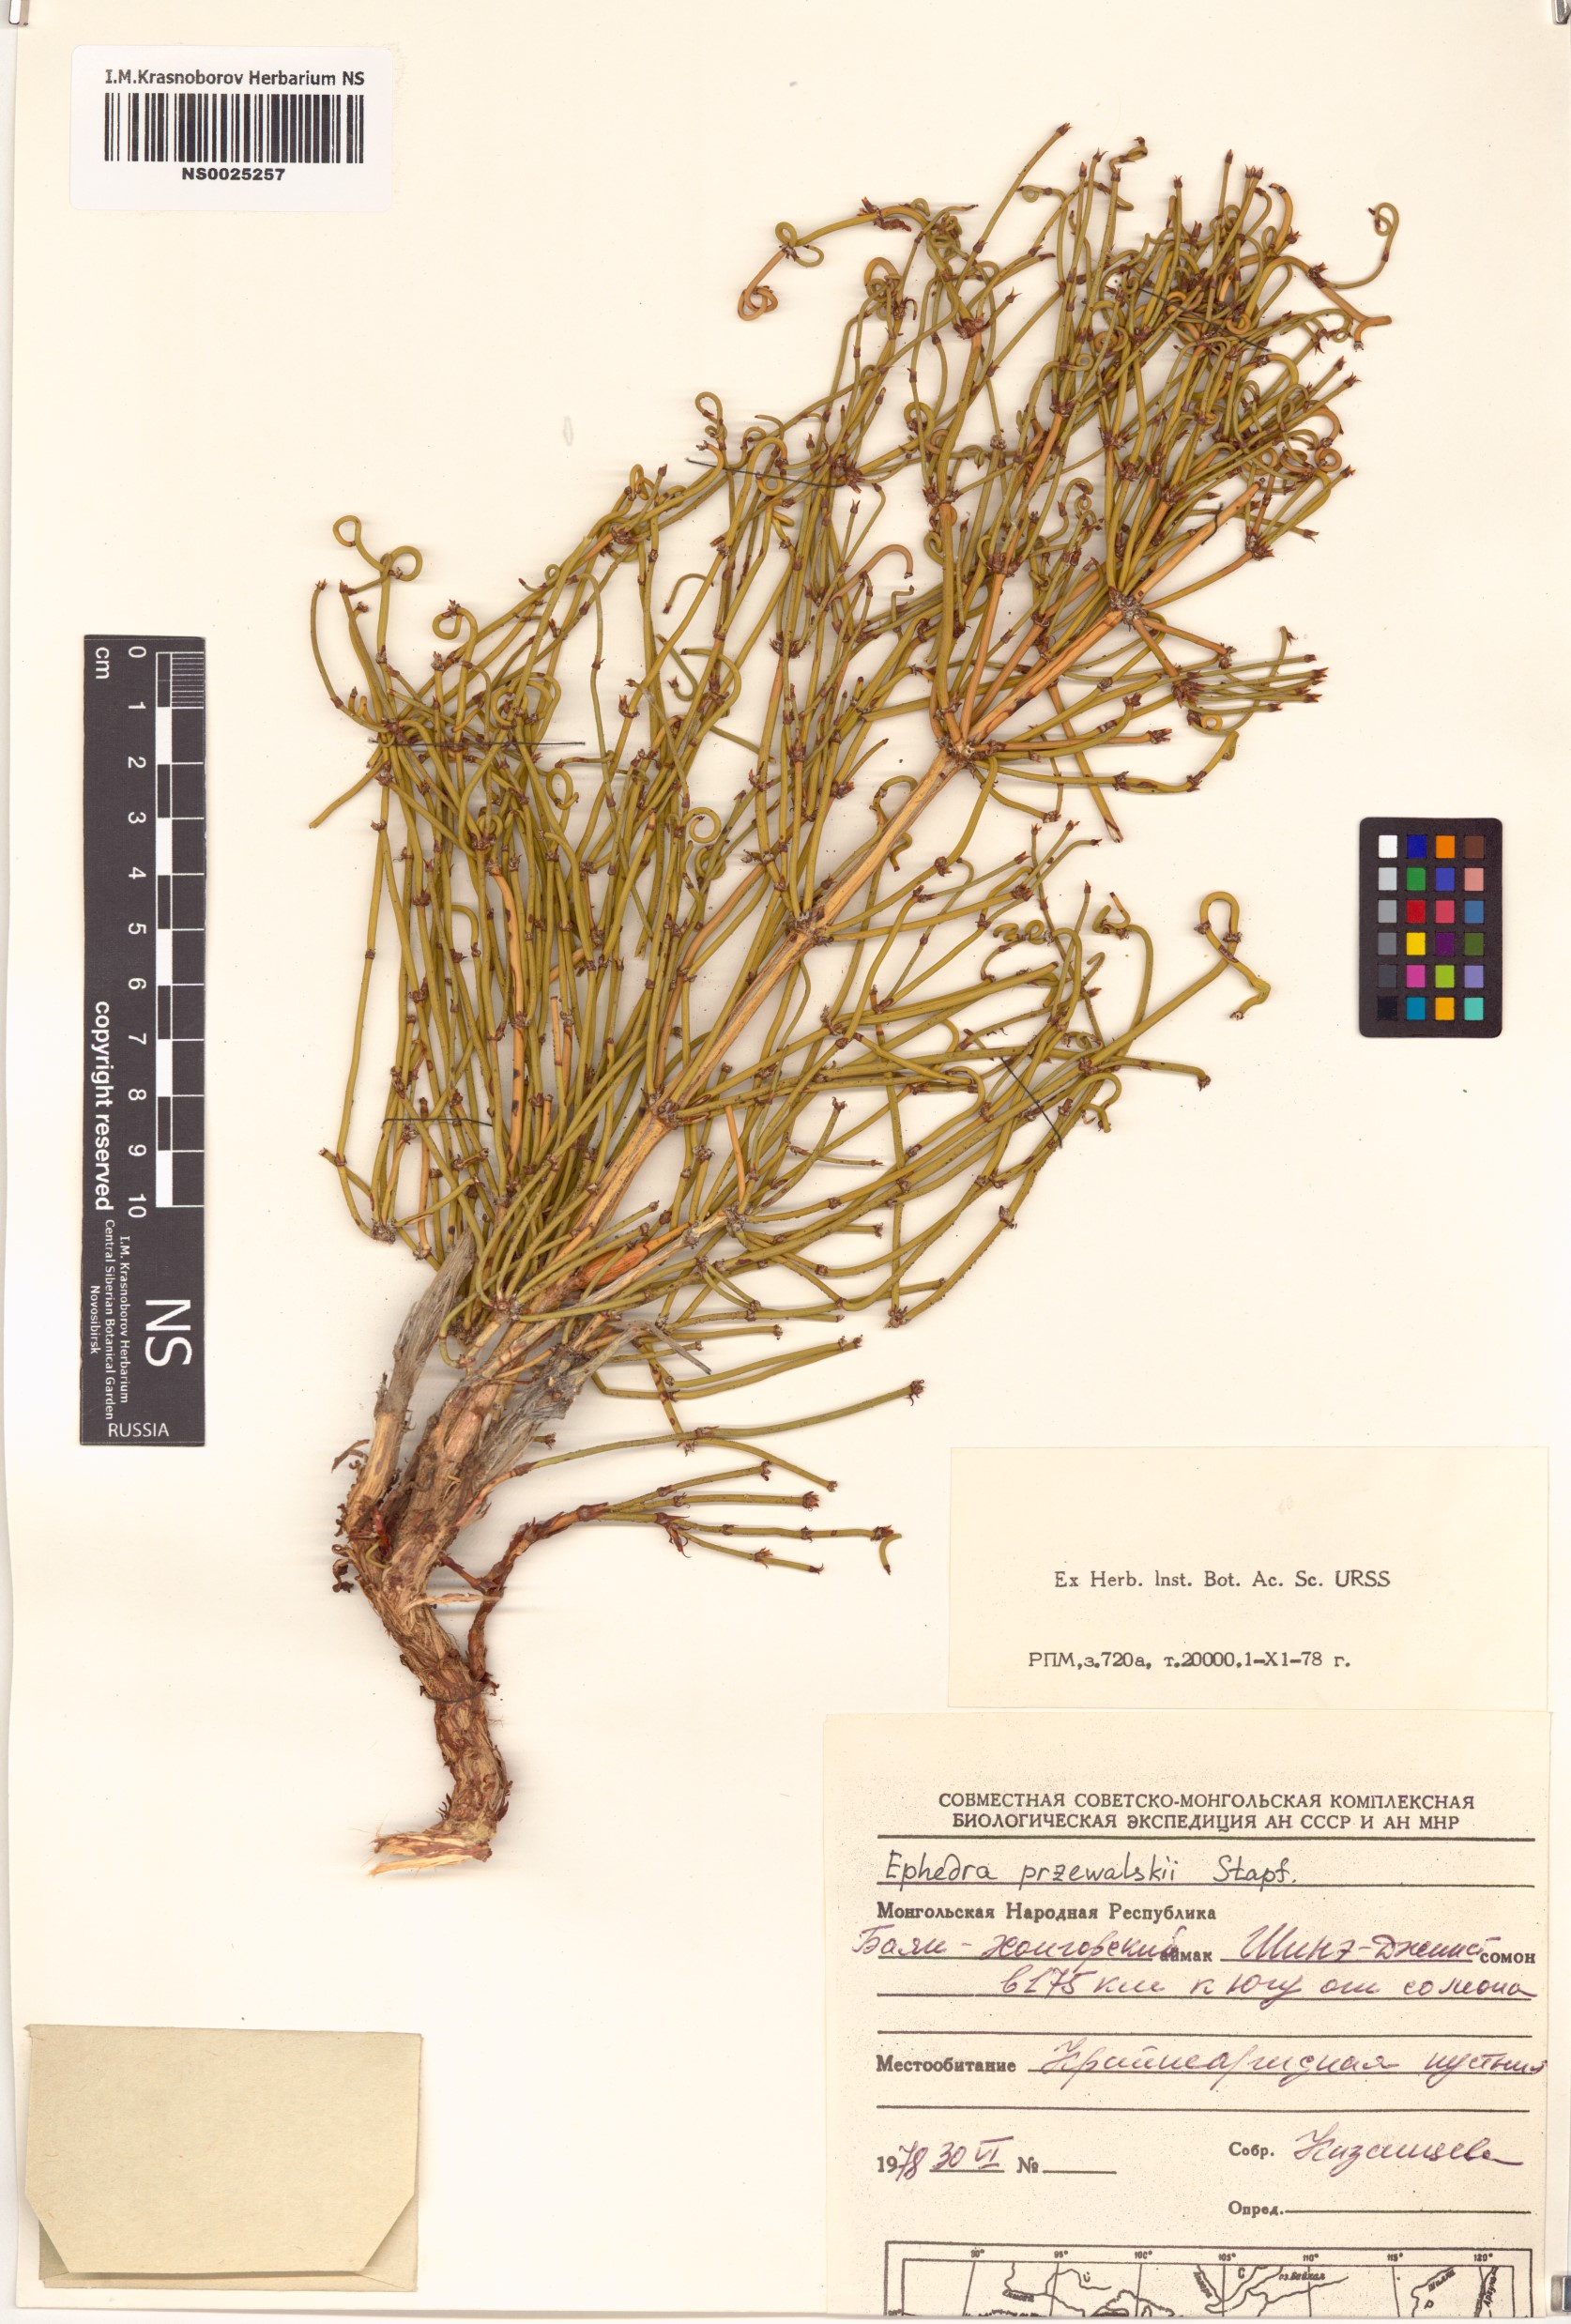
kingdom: Plantae
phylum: Tracheophyta
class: Gnetopsida
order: Ephedrales
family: Ephedraceae
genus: Ephedra
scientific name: Ephedra przewalskii
